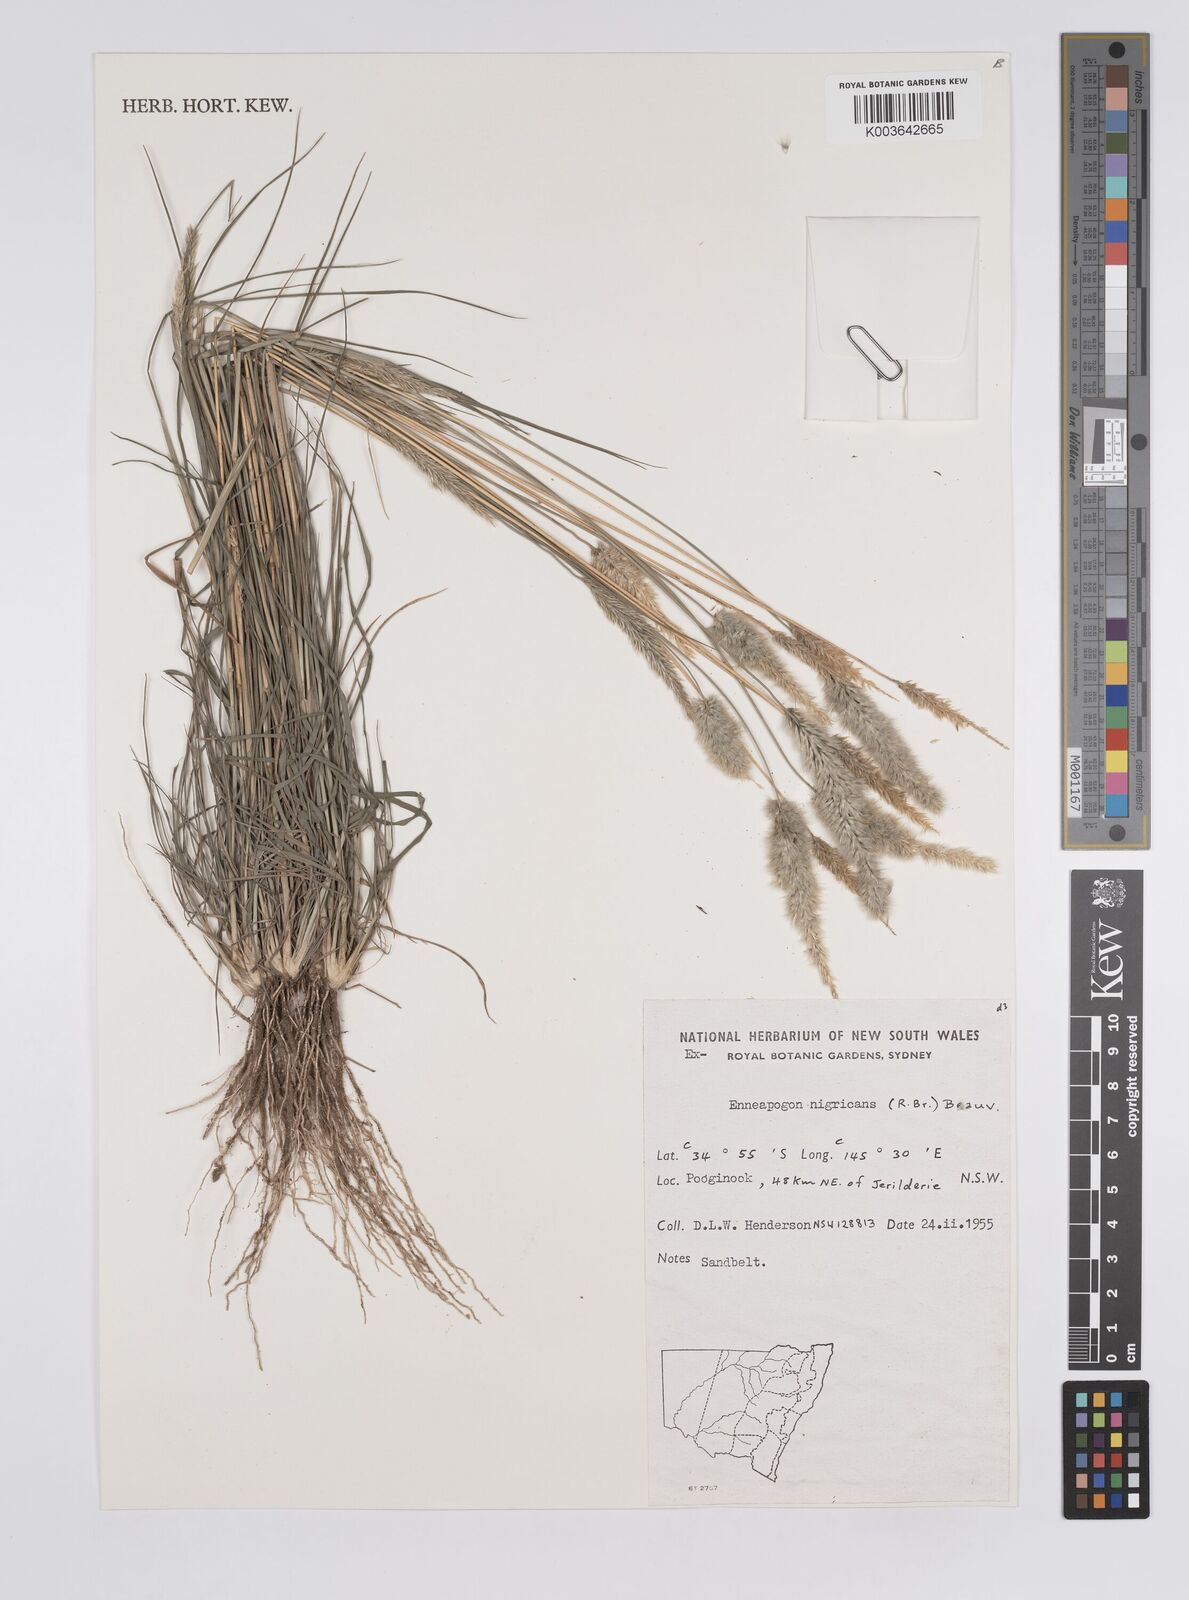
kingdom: Plantae
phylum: Tracheophyta
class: Liliopsida
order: Poales
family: Poaceae
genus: Enneapogon
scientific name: Enneapogon nigricans
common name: Pappus grass
